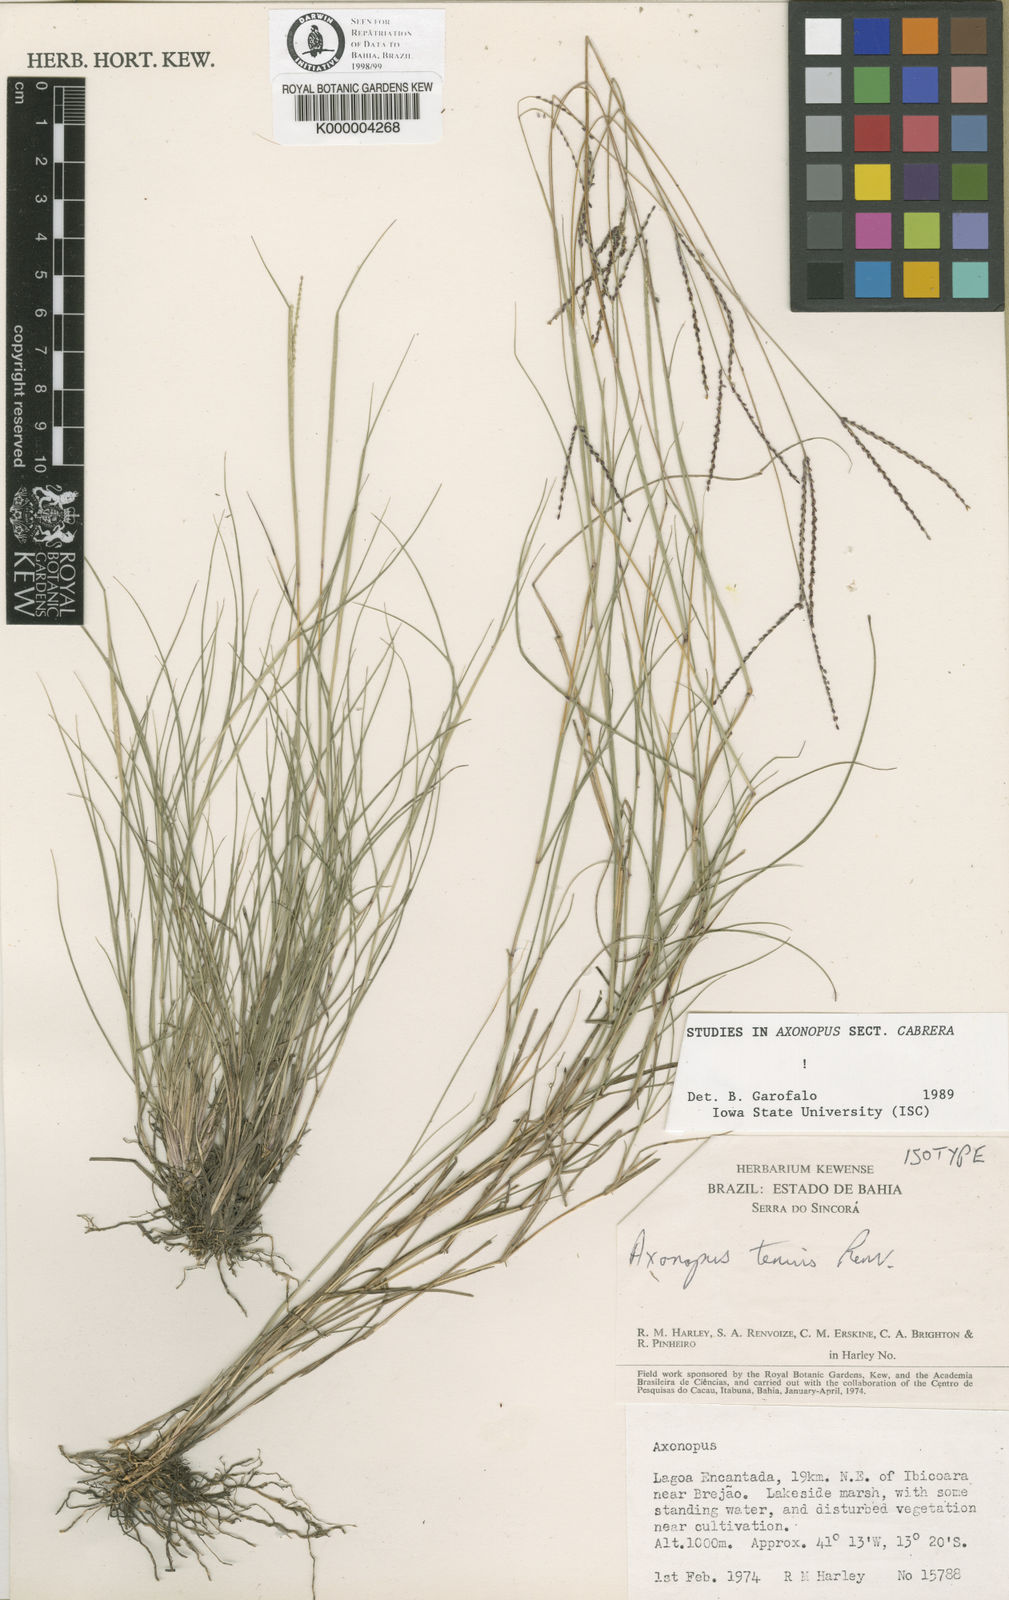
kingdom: Plantae
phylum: Tracheophyta
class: Liliopsida
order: Poales
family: Poaceae
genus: Axonopus
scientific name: Axonopus aureus
